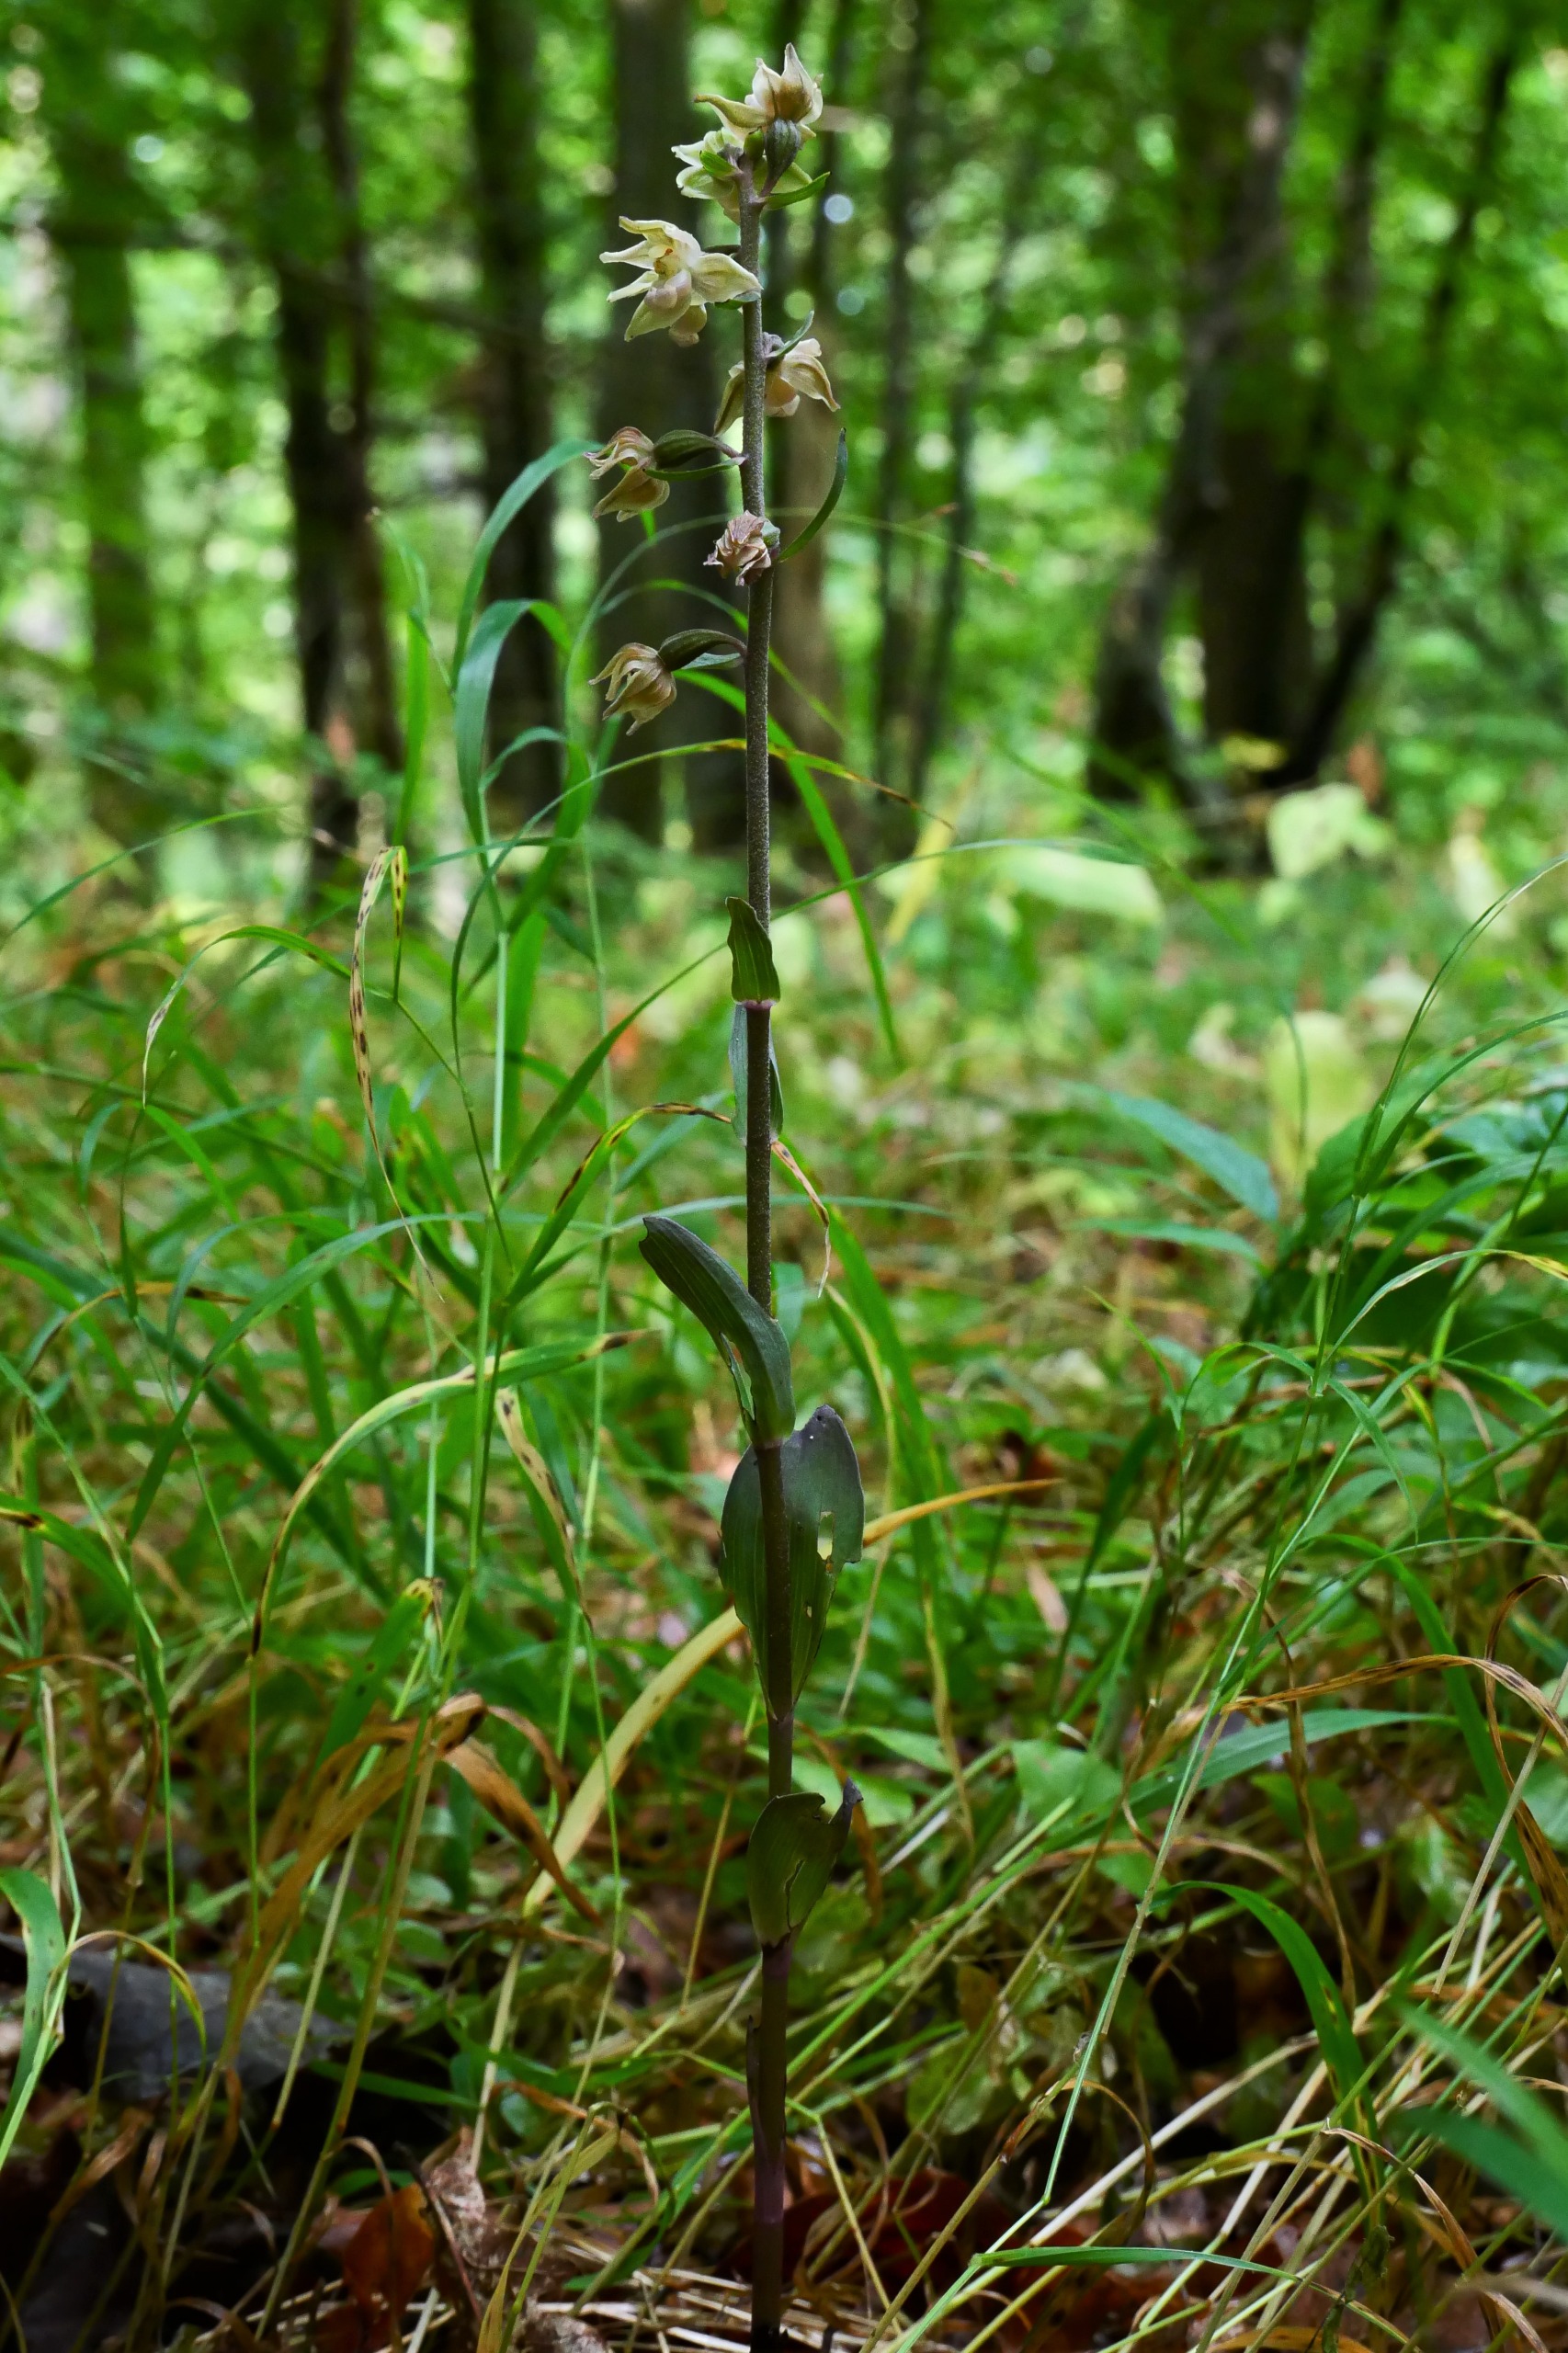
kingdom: Plantae
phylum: Tracheophyta
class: Liliopsida
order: Asparagales
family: Orchidaceae
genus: Epipactis
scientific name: Epipactis purpurata
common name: Tætblomstret hullæbe
